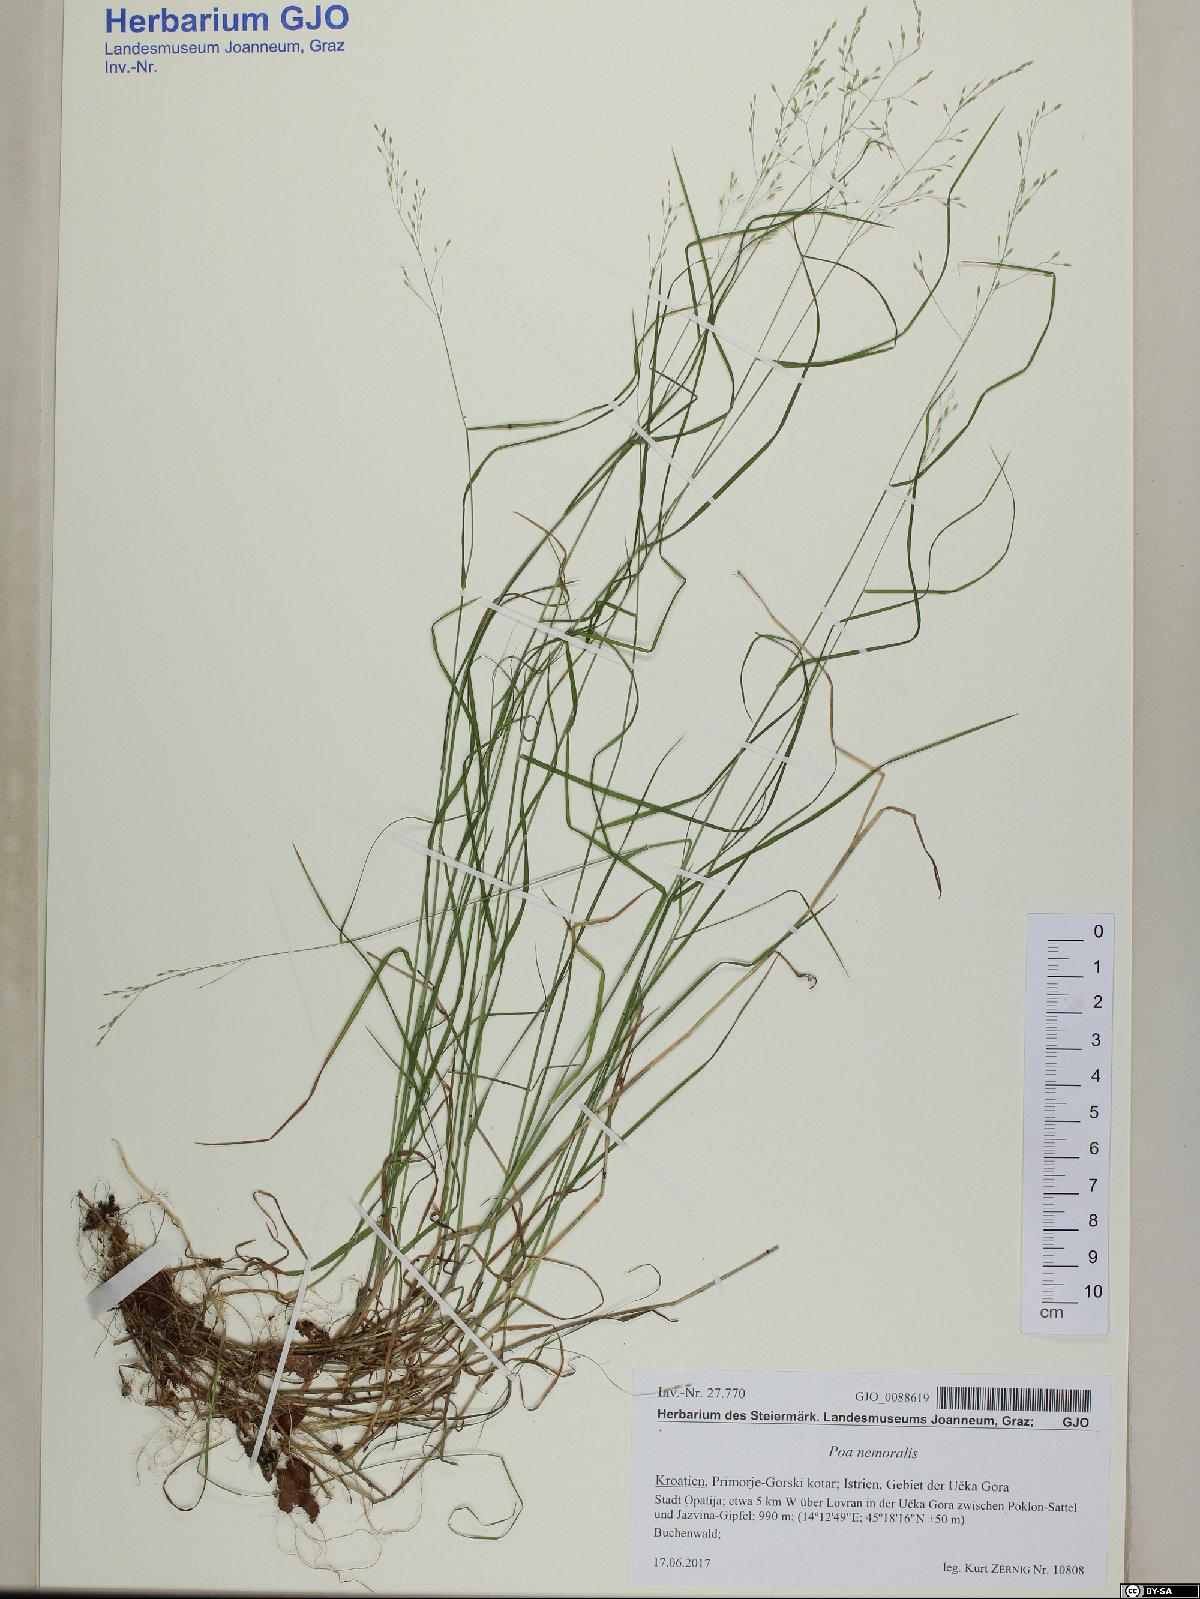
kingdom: Plantae
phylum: Tracheophyta
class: Liliopsida
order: Poales
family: Poaceae
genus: Poa
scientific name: Poa nemoralis
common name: Wood bluegrass
